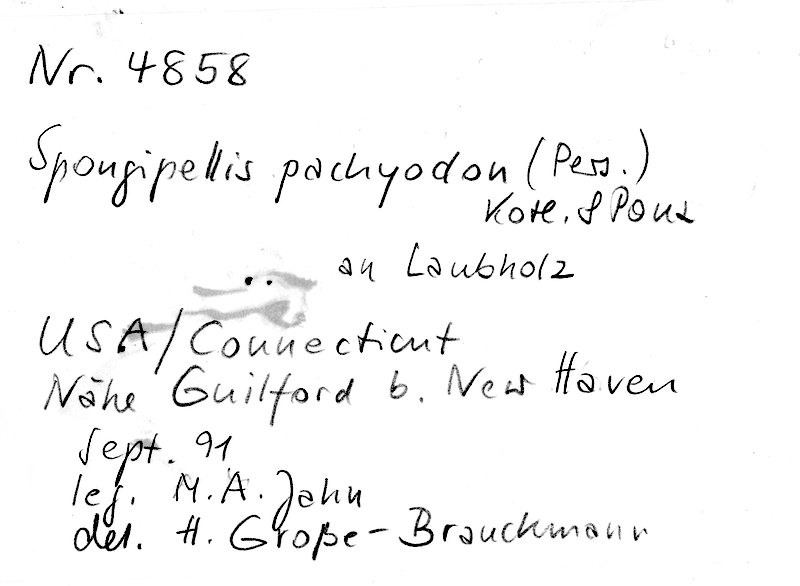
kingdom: Fungi
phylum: Basidiomycota
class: Agaricomycetes
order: Polyporales
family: Meruliaceae
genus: Irpiciporus
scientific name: Irpiciporus pachyodon
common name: Marshmallow polypore
